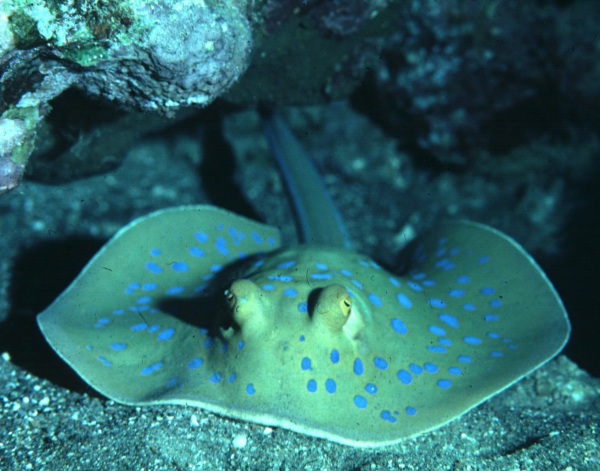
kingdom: Animalia
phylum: Chordata
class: Elasmobranchii
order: Myliobatiformes
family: Dasyatidae
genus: Taeniura
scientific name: Taeniura lymma
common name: Bluespotted ribbontail ray
